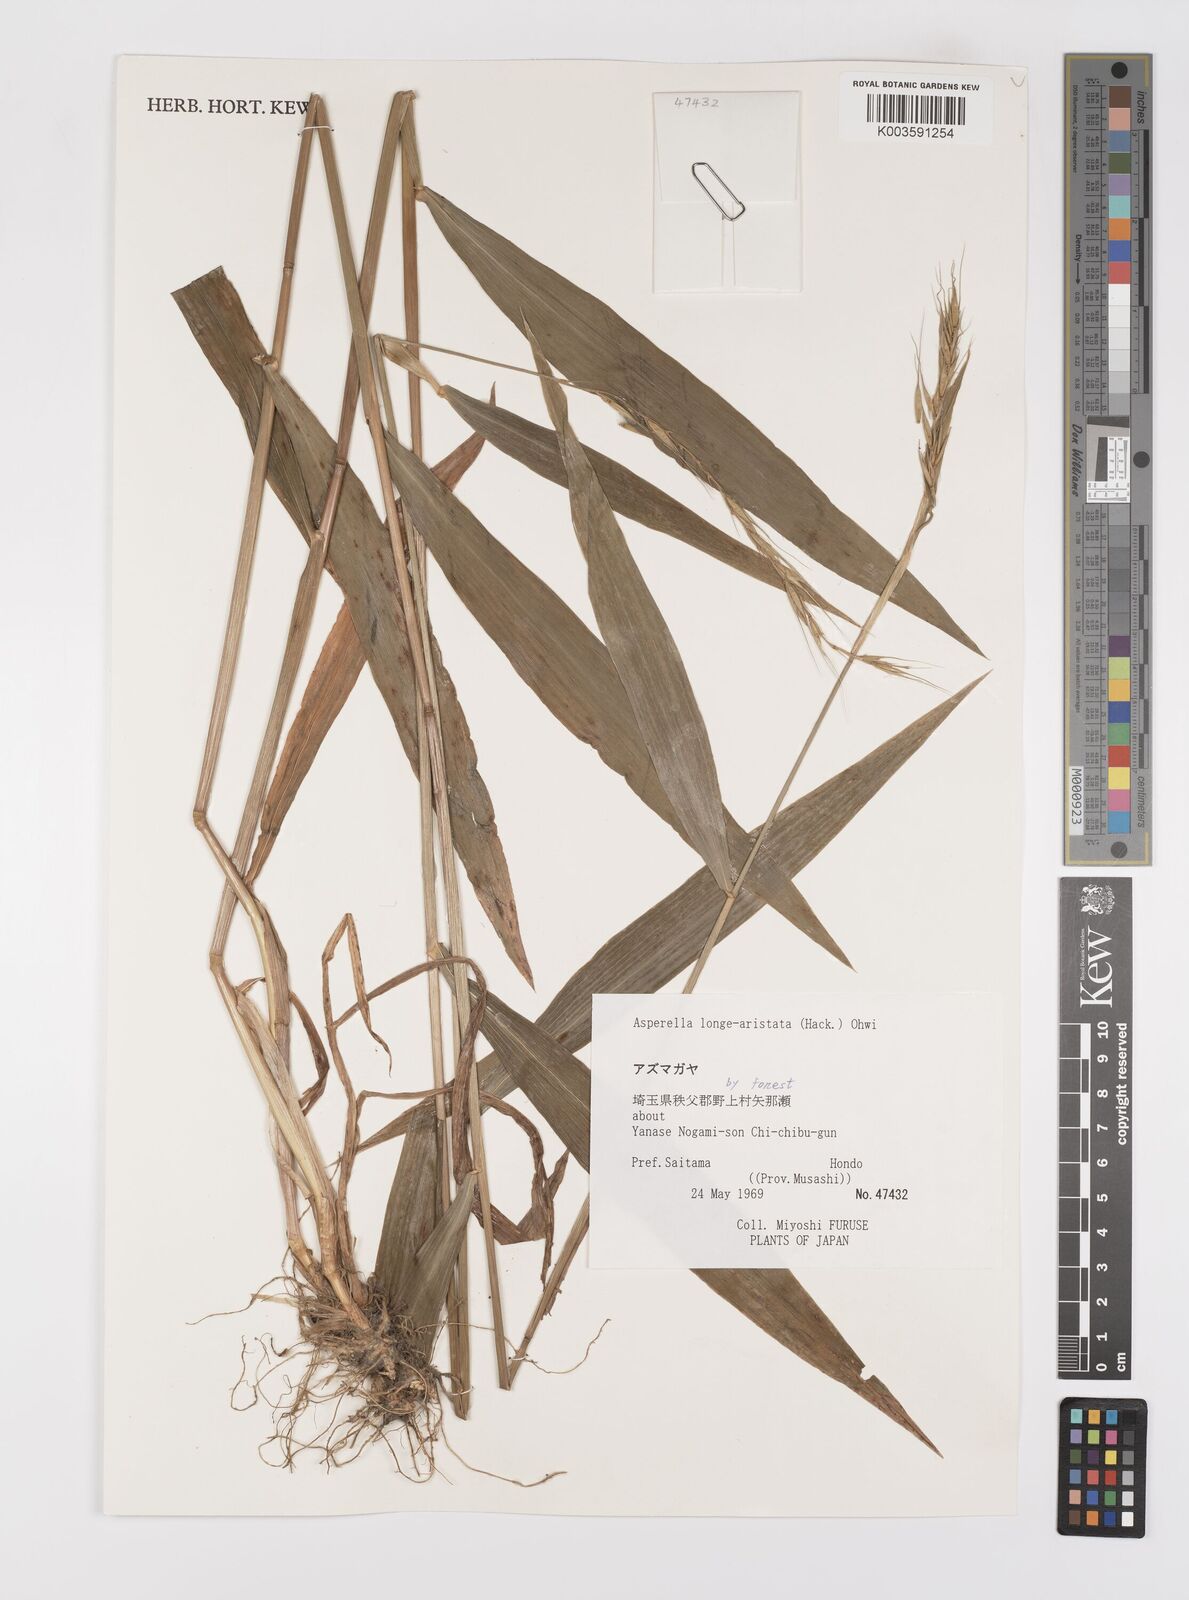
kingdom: Plantae
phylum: Tracheophyta
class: Liliopsida
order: Poales
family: Poaceae
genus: Leymus
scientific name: Leymus duthiei
